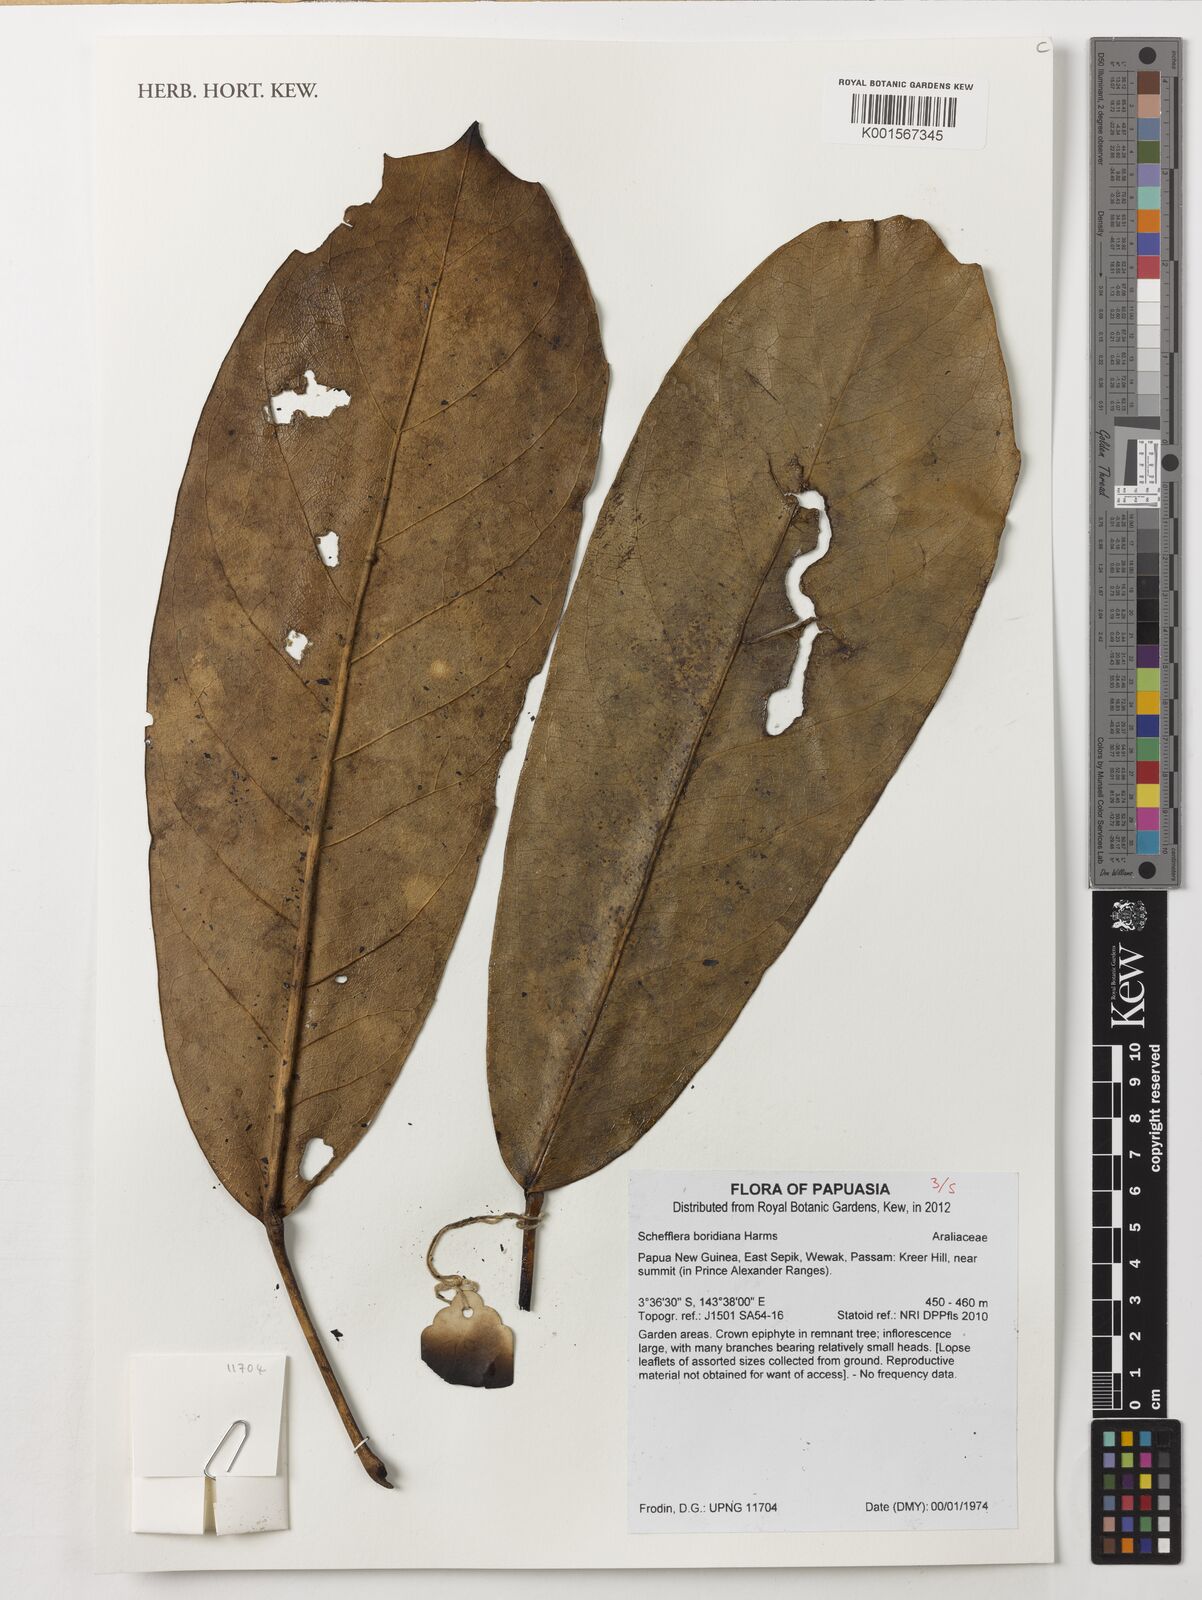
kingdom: Plantae
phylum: Tracheophyta
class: Magnoliopsida
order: Apiales
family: Araliaceae
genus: Heptapleurum
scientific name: Heptapleurum boridianum
